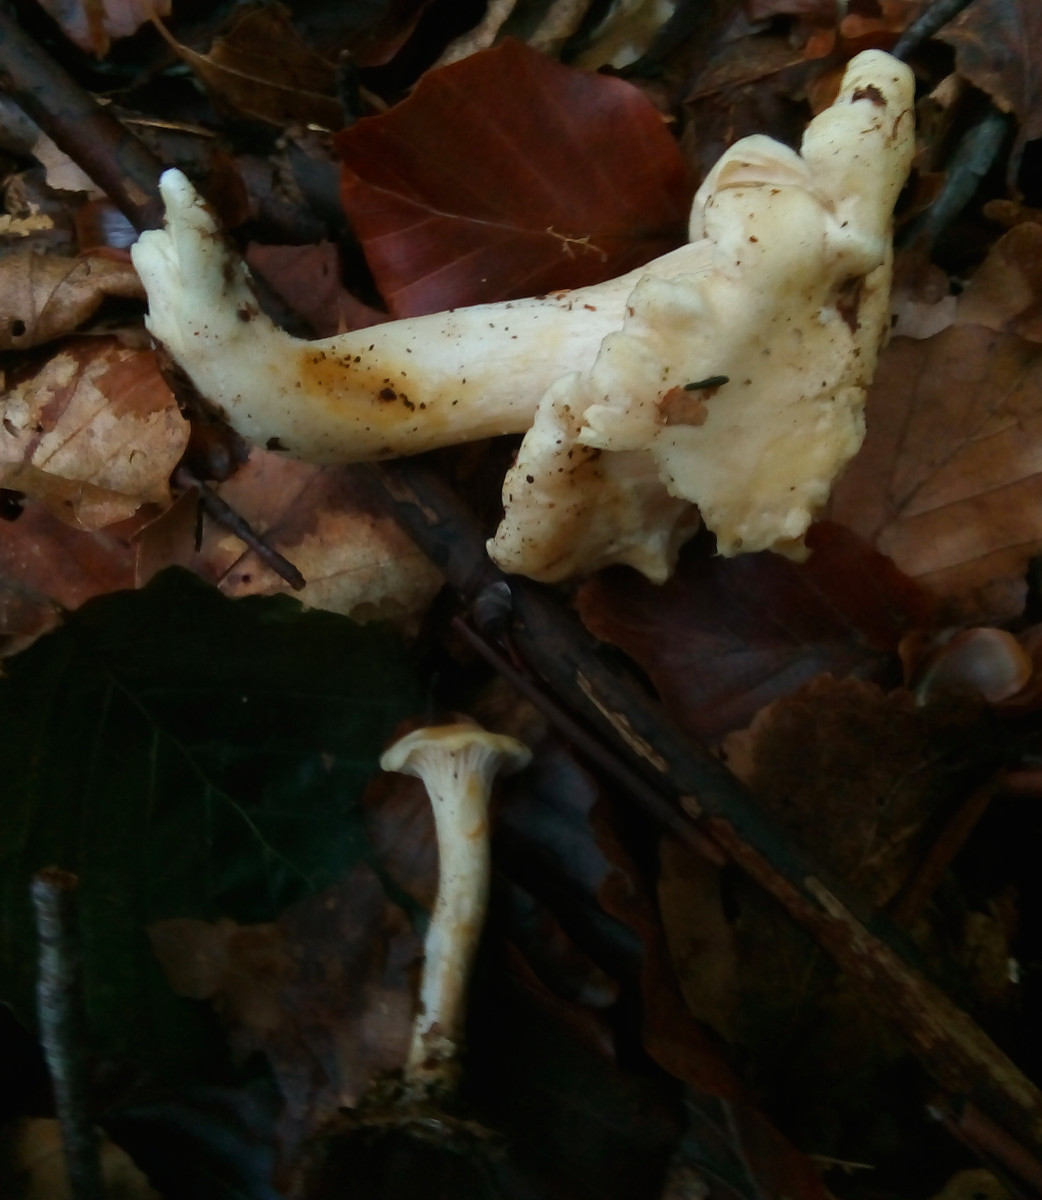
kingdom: Fungi
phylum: Basidiomycota
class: Agaricomycetes
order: Cantharellales
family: Hydnaceae
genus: Cantharellus
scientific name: Cantharellus pallens
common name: bleg kantarel
